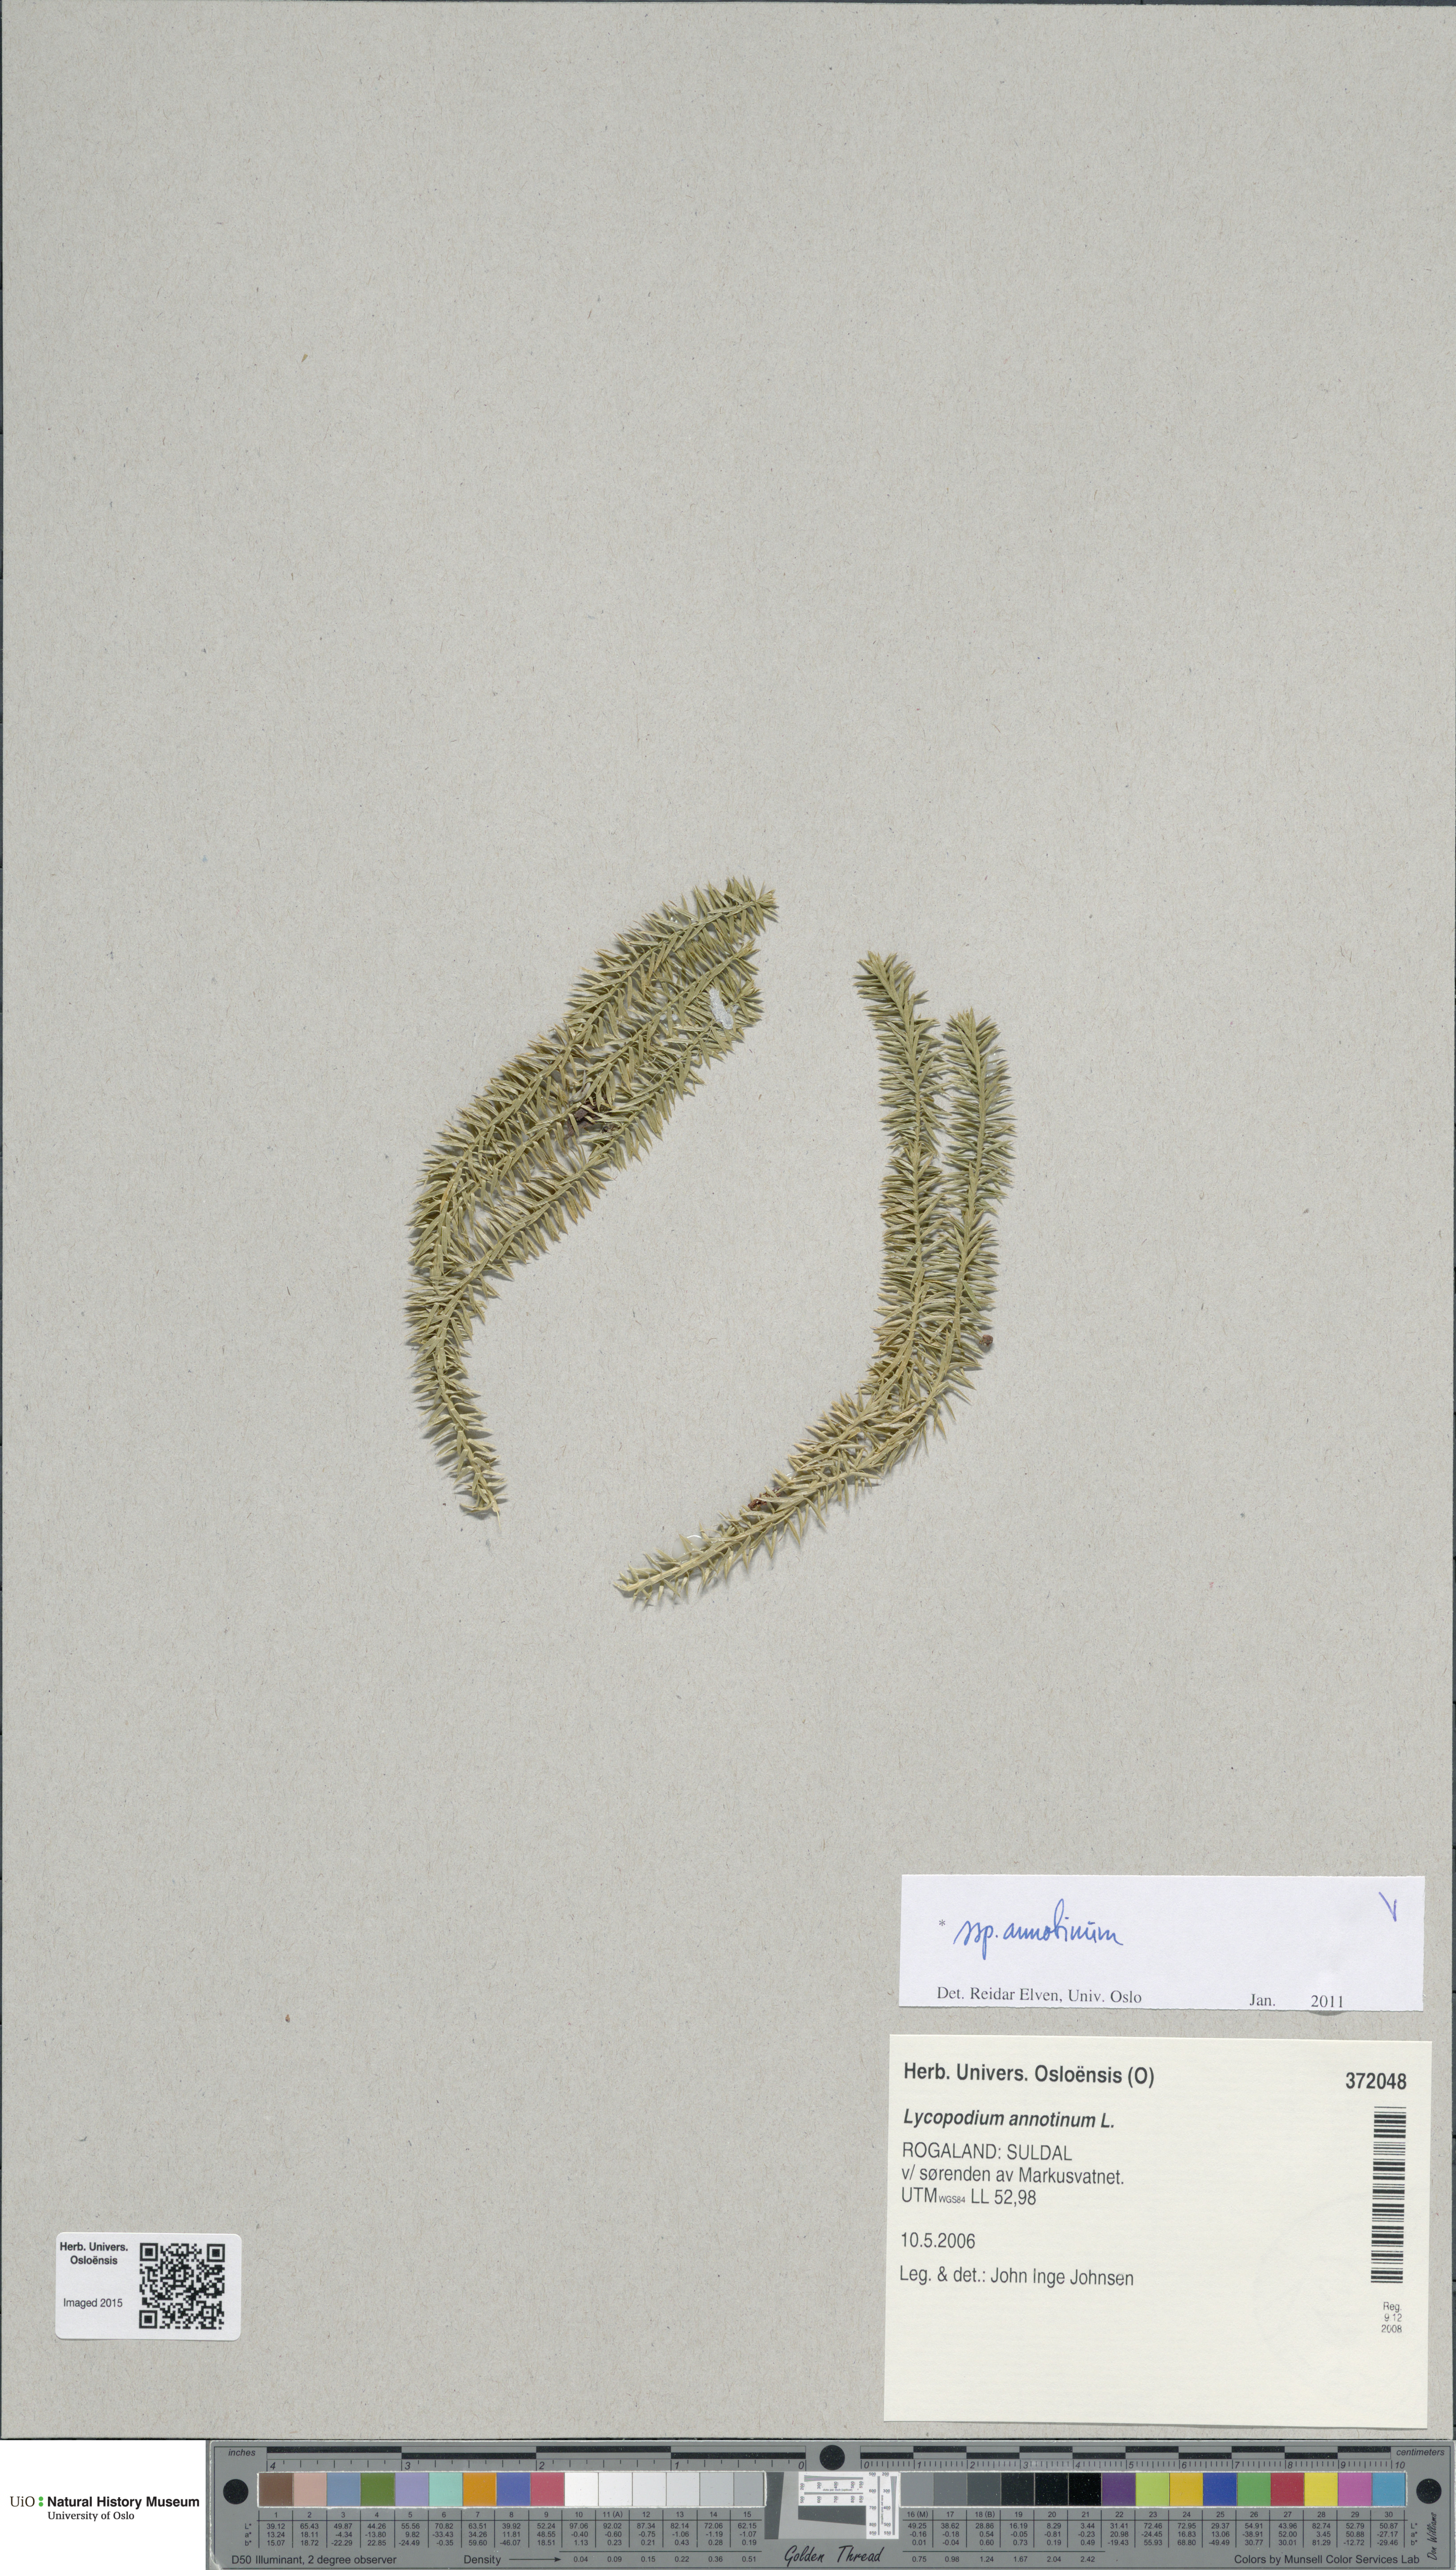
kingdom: Plantae
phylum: Tracheophyta
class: Lycopodiopsida
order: Lycopodiales
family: Lycopodiaceae
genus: Spinulum
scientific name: Spinulum annotinum
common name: Interrupted club-moss
